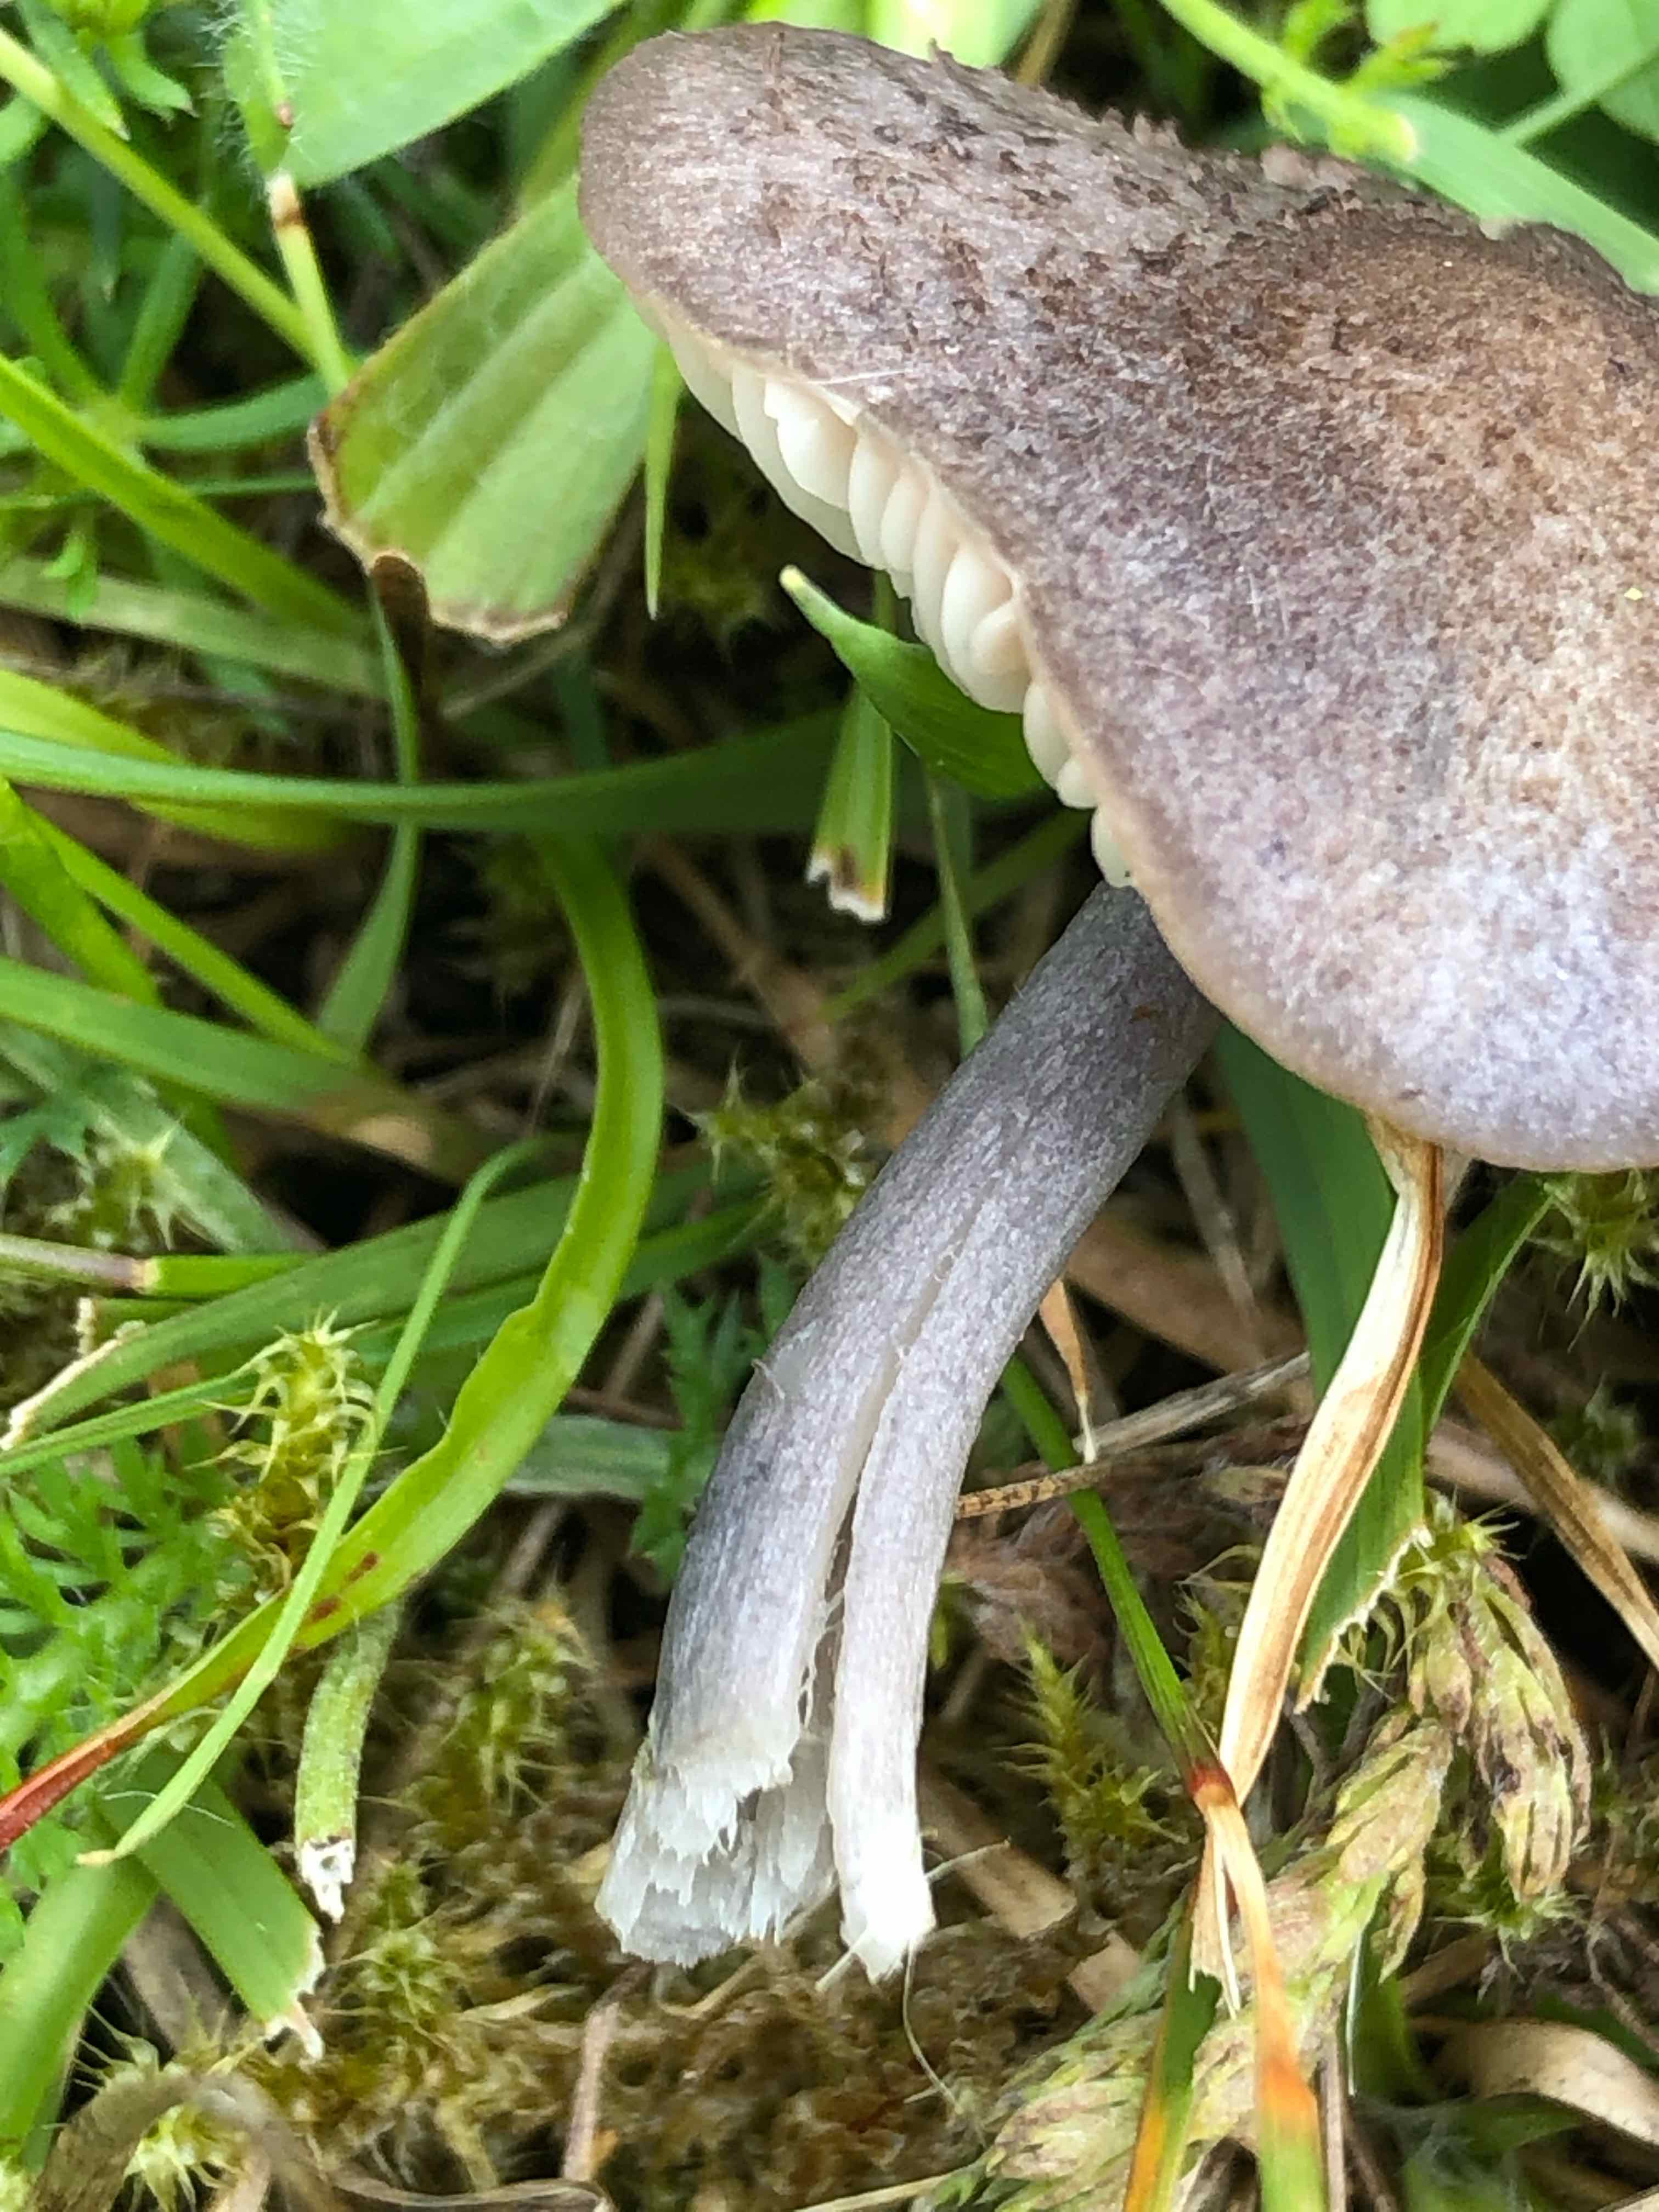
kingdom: Fungi
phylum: Basidiomycota
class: Agaricomycetes
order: Agaricales
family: Entolomataceae
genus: Entoloma
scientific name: Entoloma griseocyaneum
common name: gråblå rødblad
